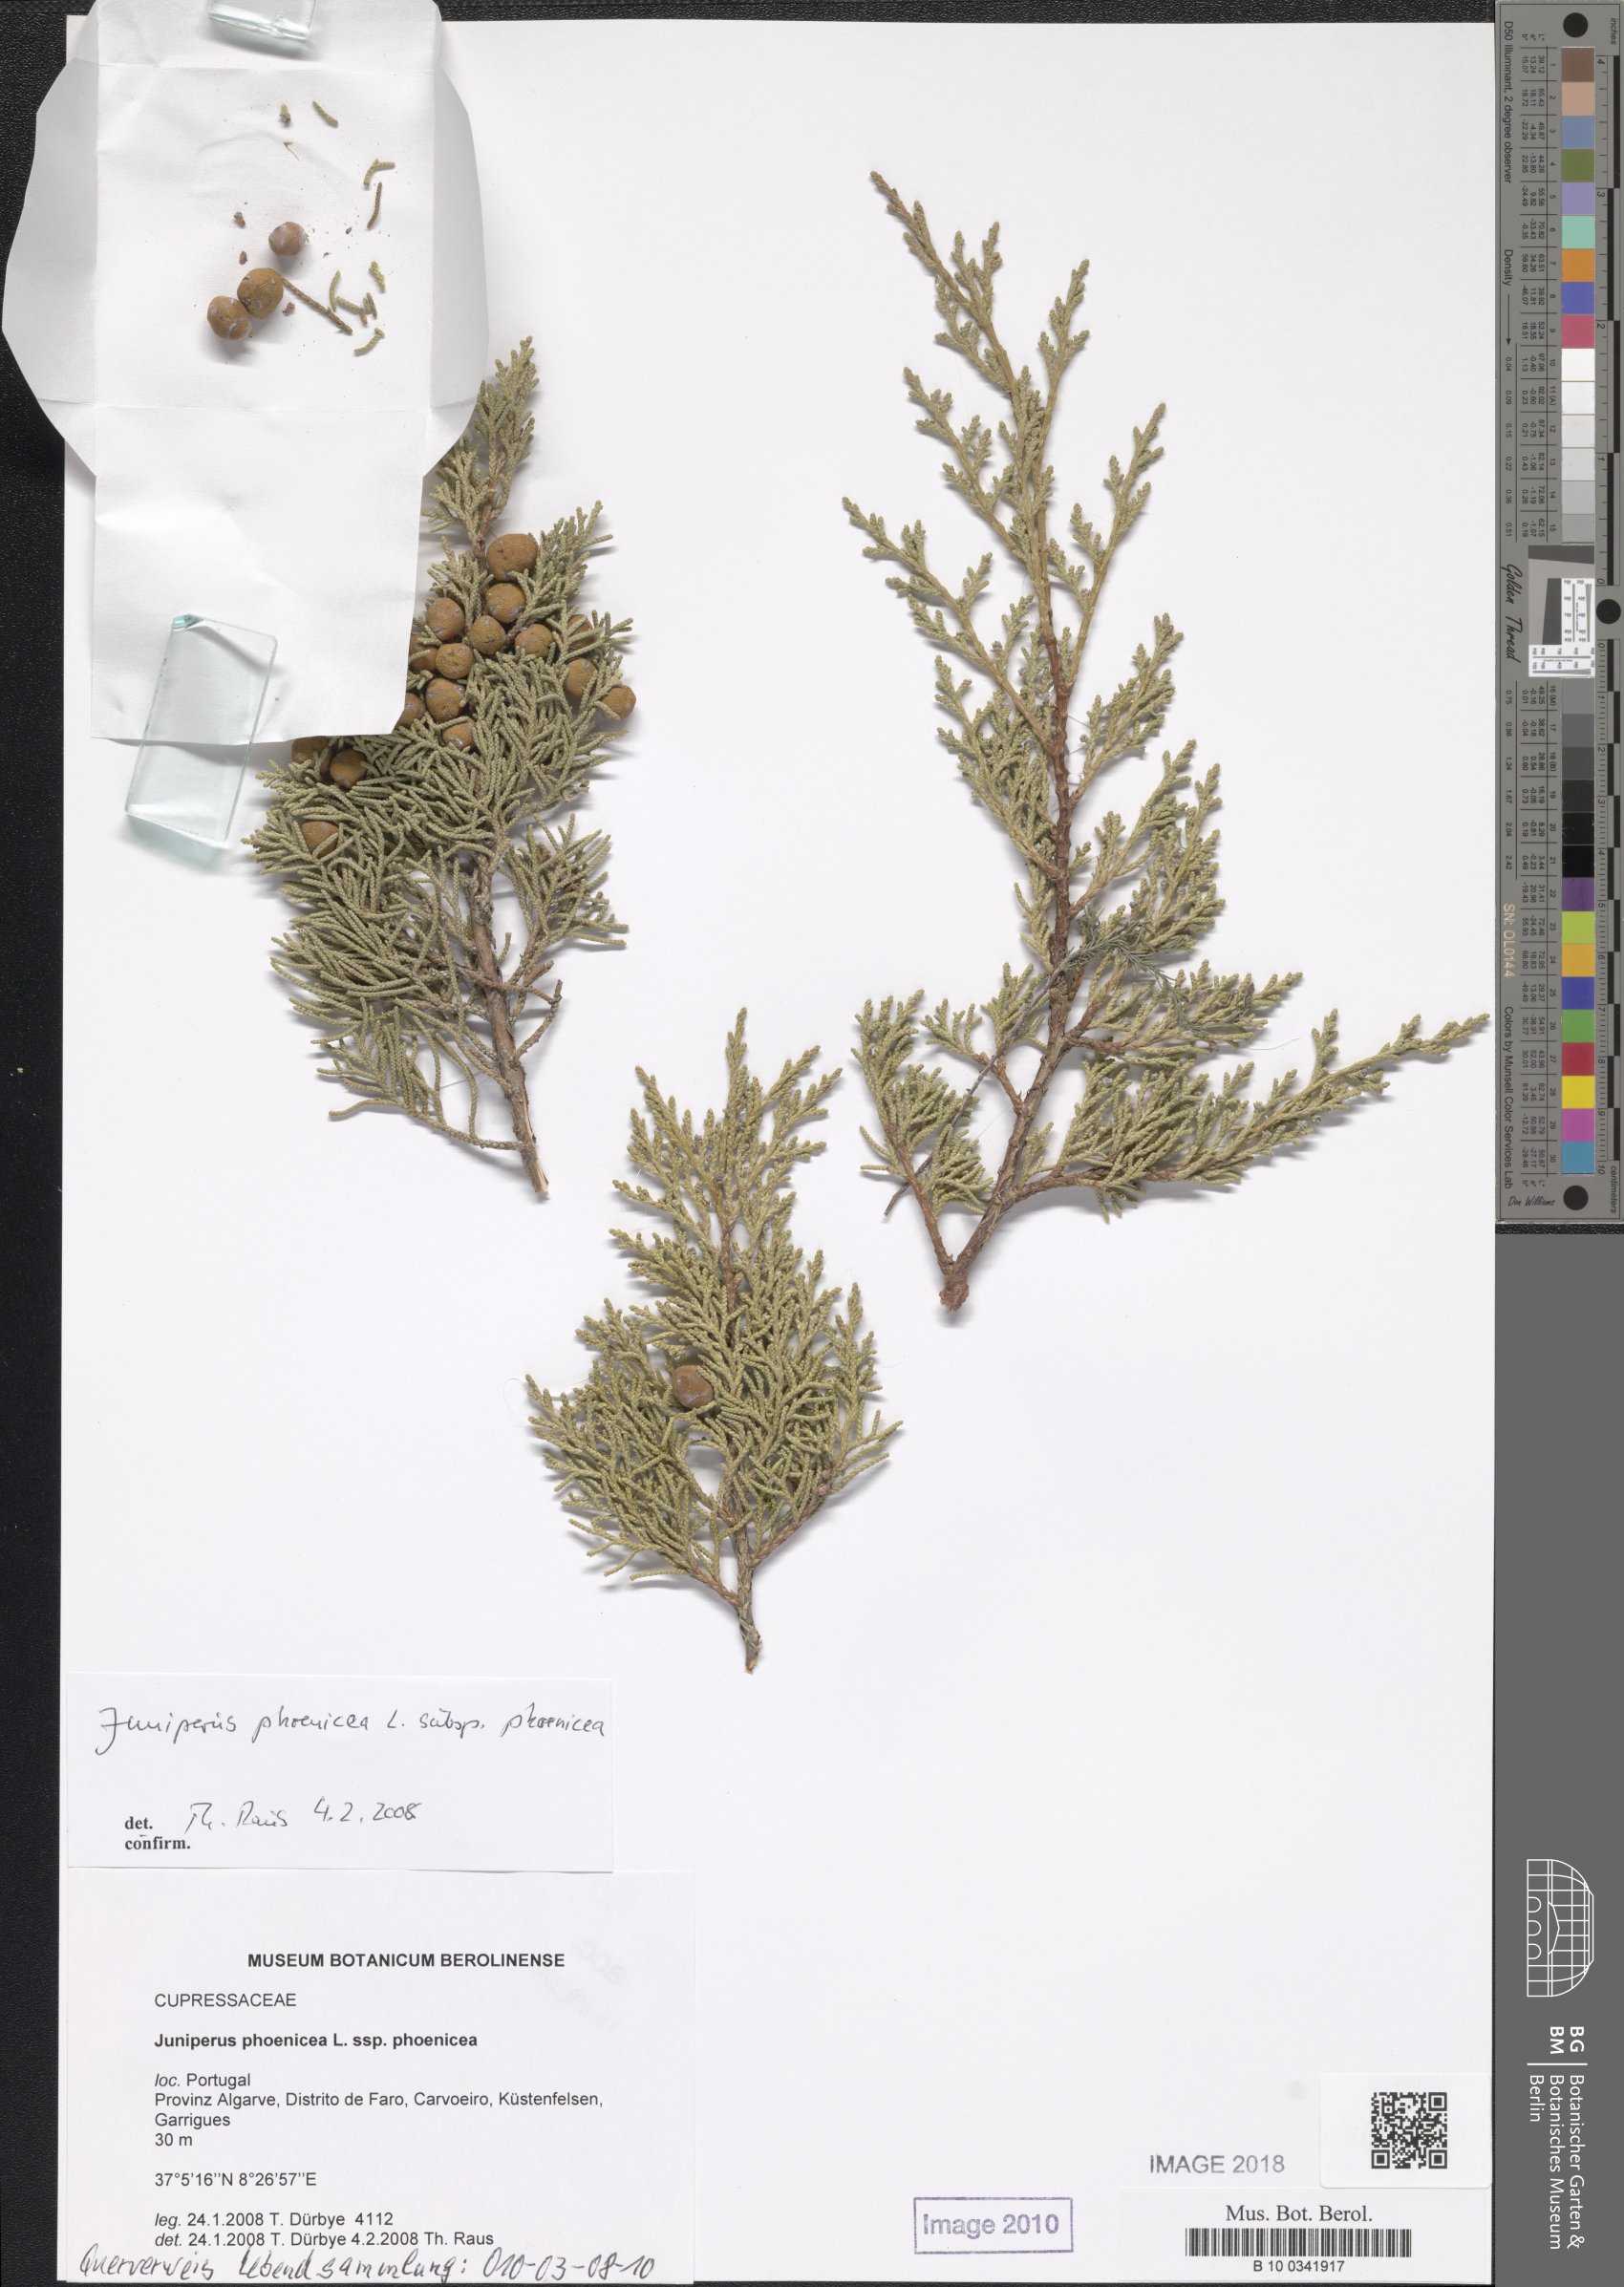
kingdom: Plantae
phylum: Tracheophyta
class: Pinopsida
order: Pinales
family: Cupressaceae
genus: Juniperus
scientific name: Juniperus phoenicea
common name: Phoenician juniper
